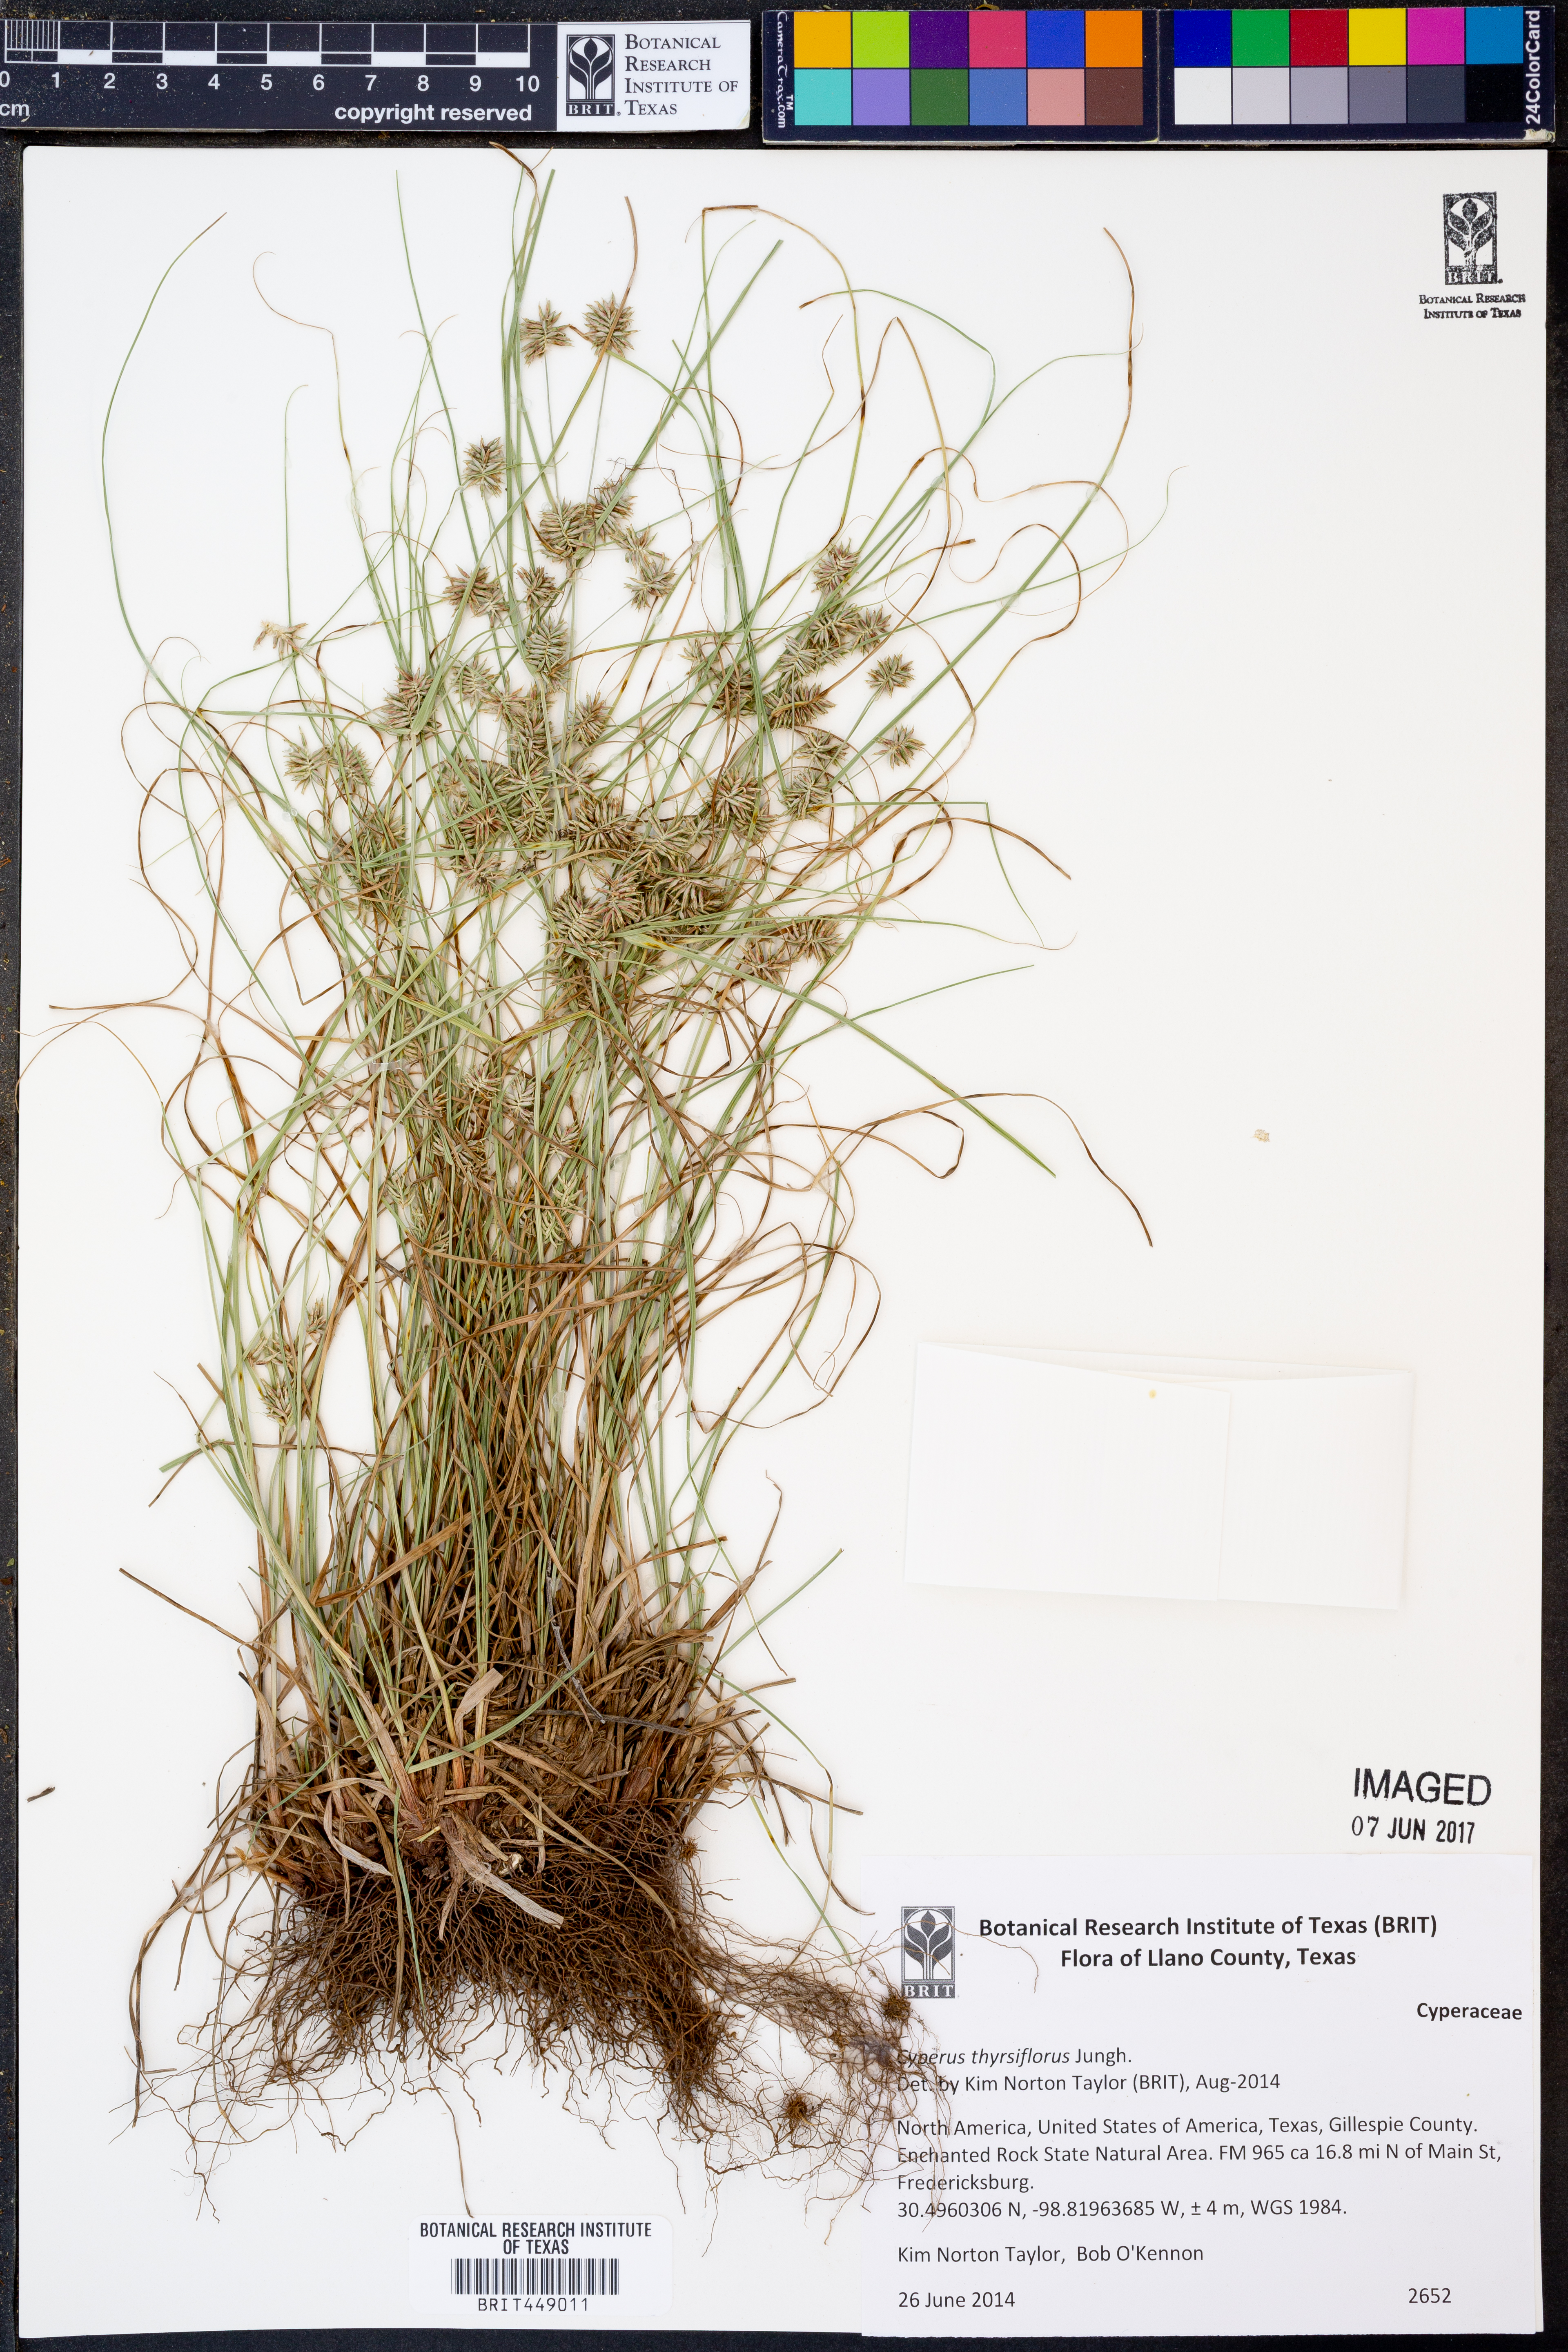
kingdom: Plantae
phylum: Tracheophyta
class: Liliopsida
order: Poales
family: Cyperaceae
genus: Cyperus
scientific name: Cyperus thyrsiflorus
